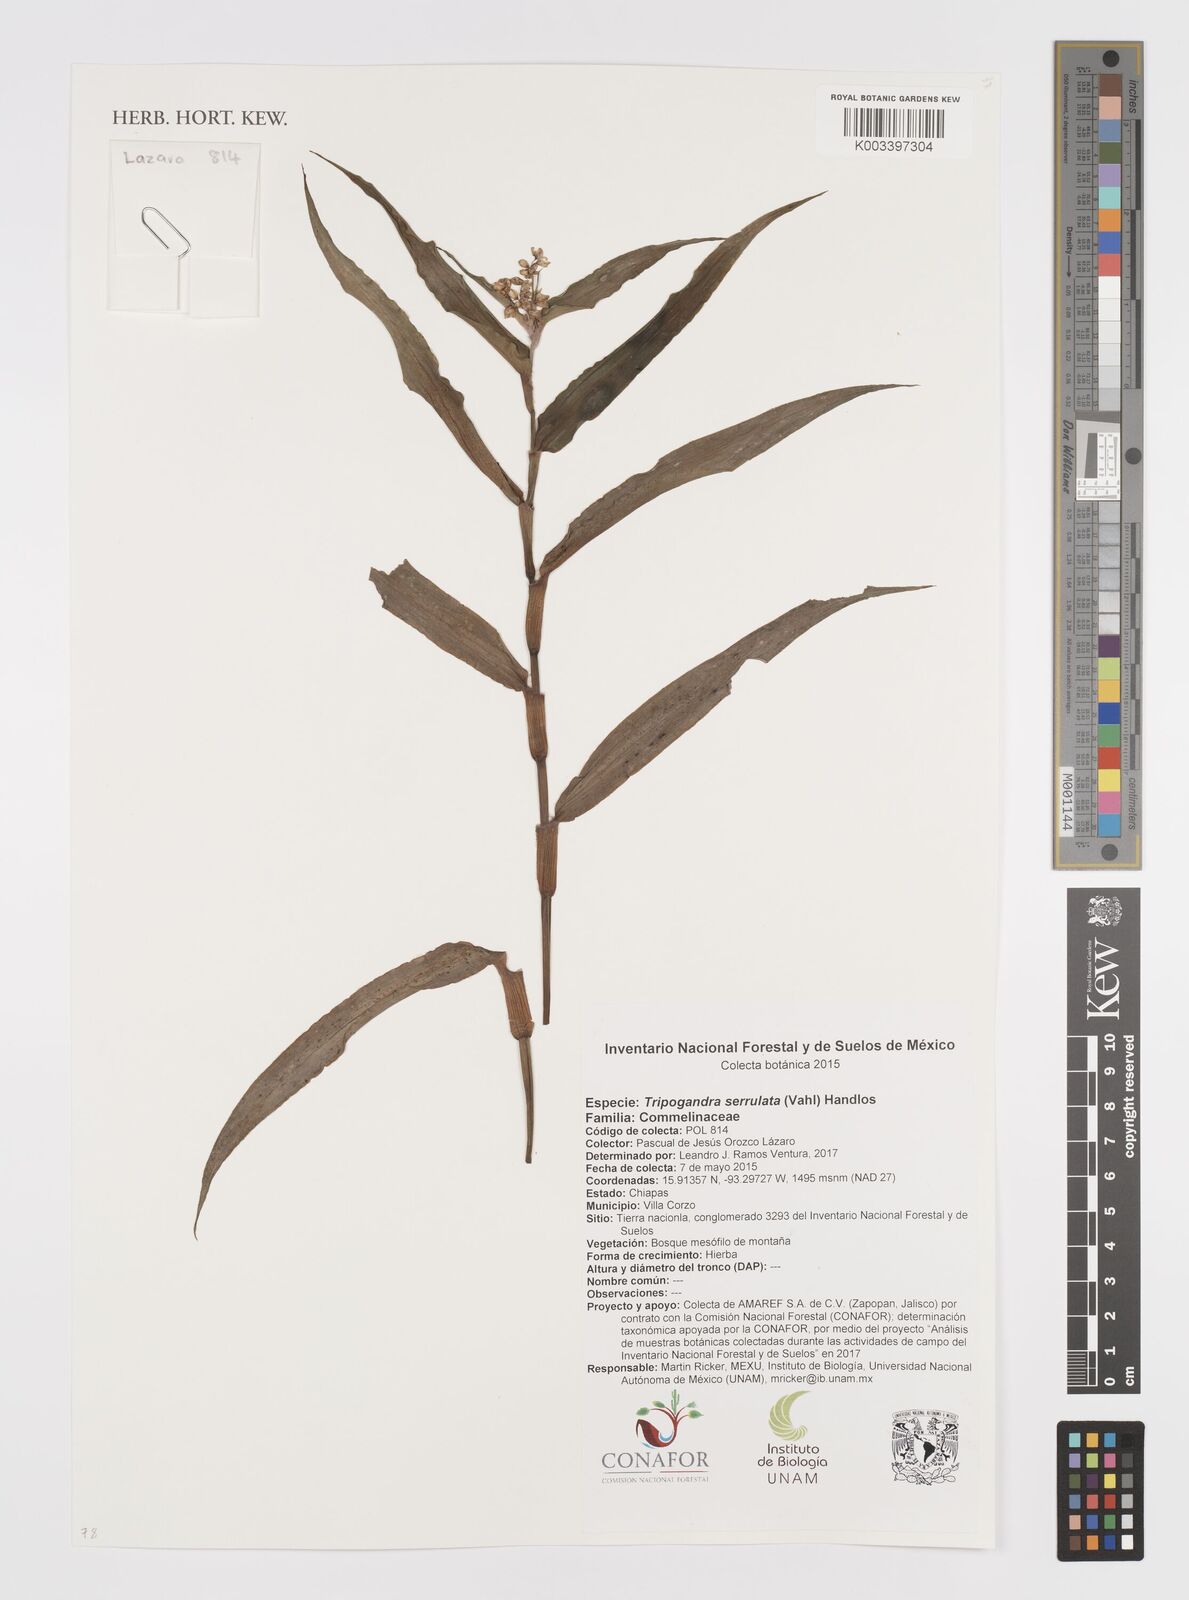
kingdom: Plantae
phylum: Tracheophyta
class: Liliopsida
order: Commelinales
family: Commelinaceae
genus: Callisia
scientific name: Callisia serrulata
